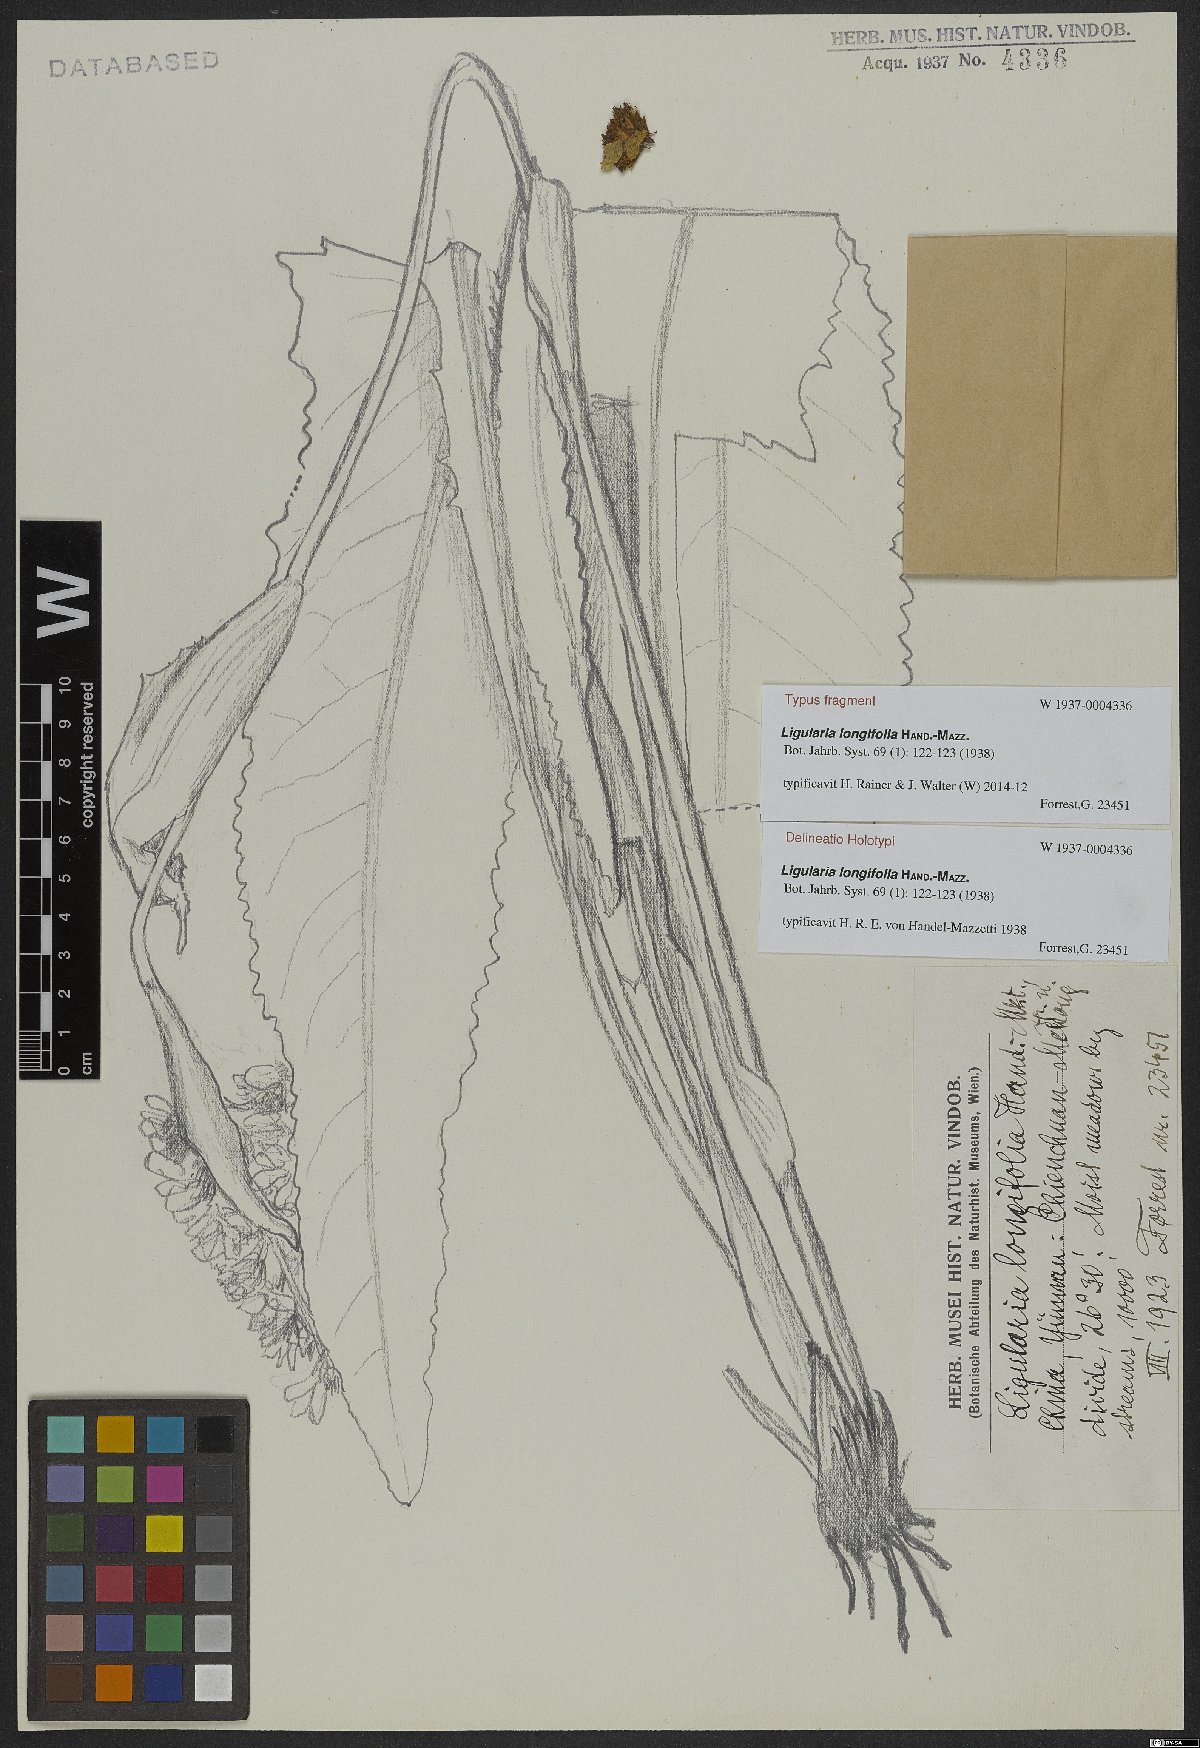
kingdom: Plantae
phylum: Tracheophyta
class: Magnoliopsida
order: Asterales
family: Asteraceae
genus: Ligularia
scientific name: Ligularia longifolia
